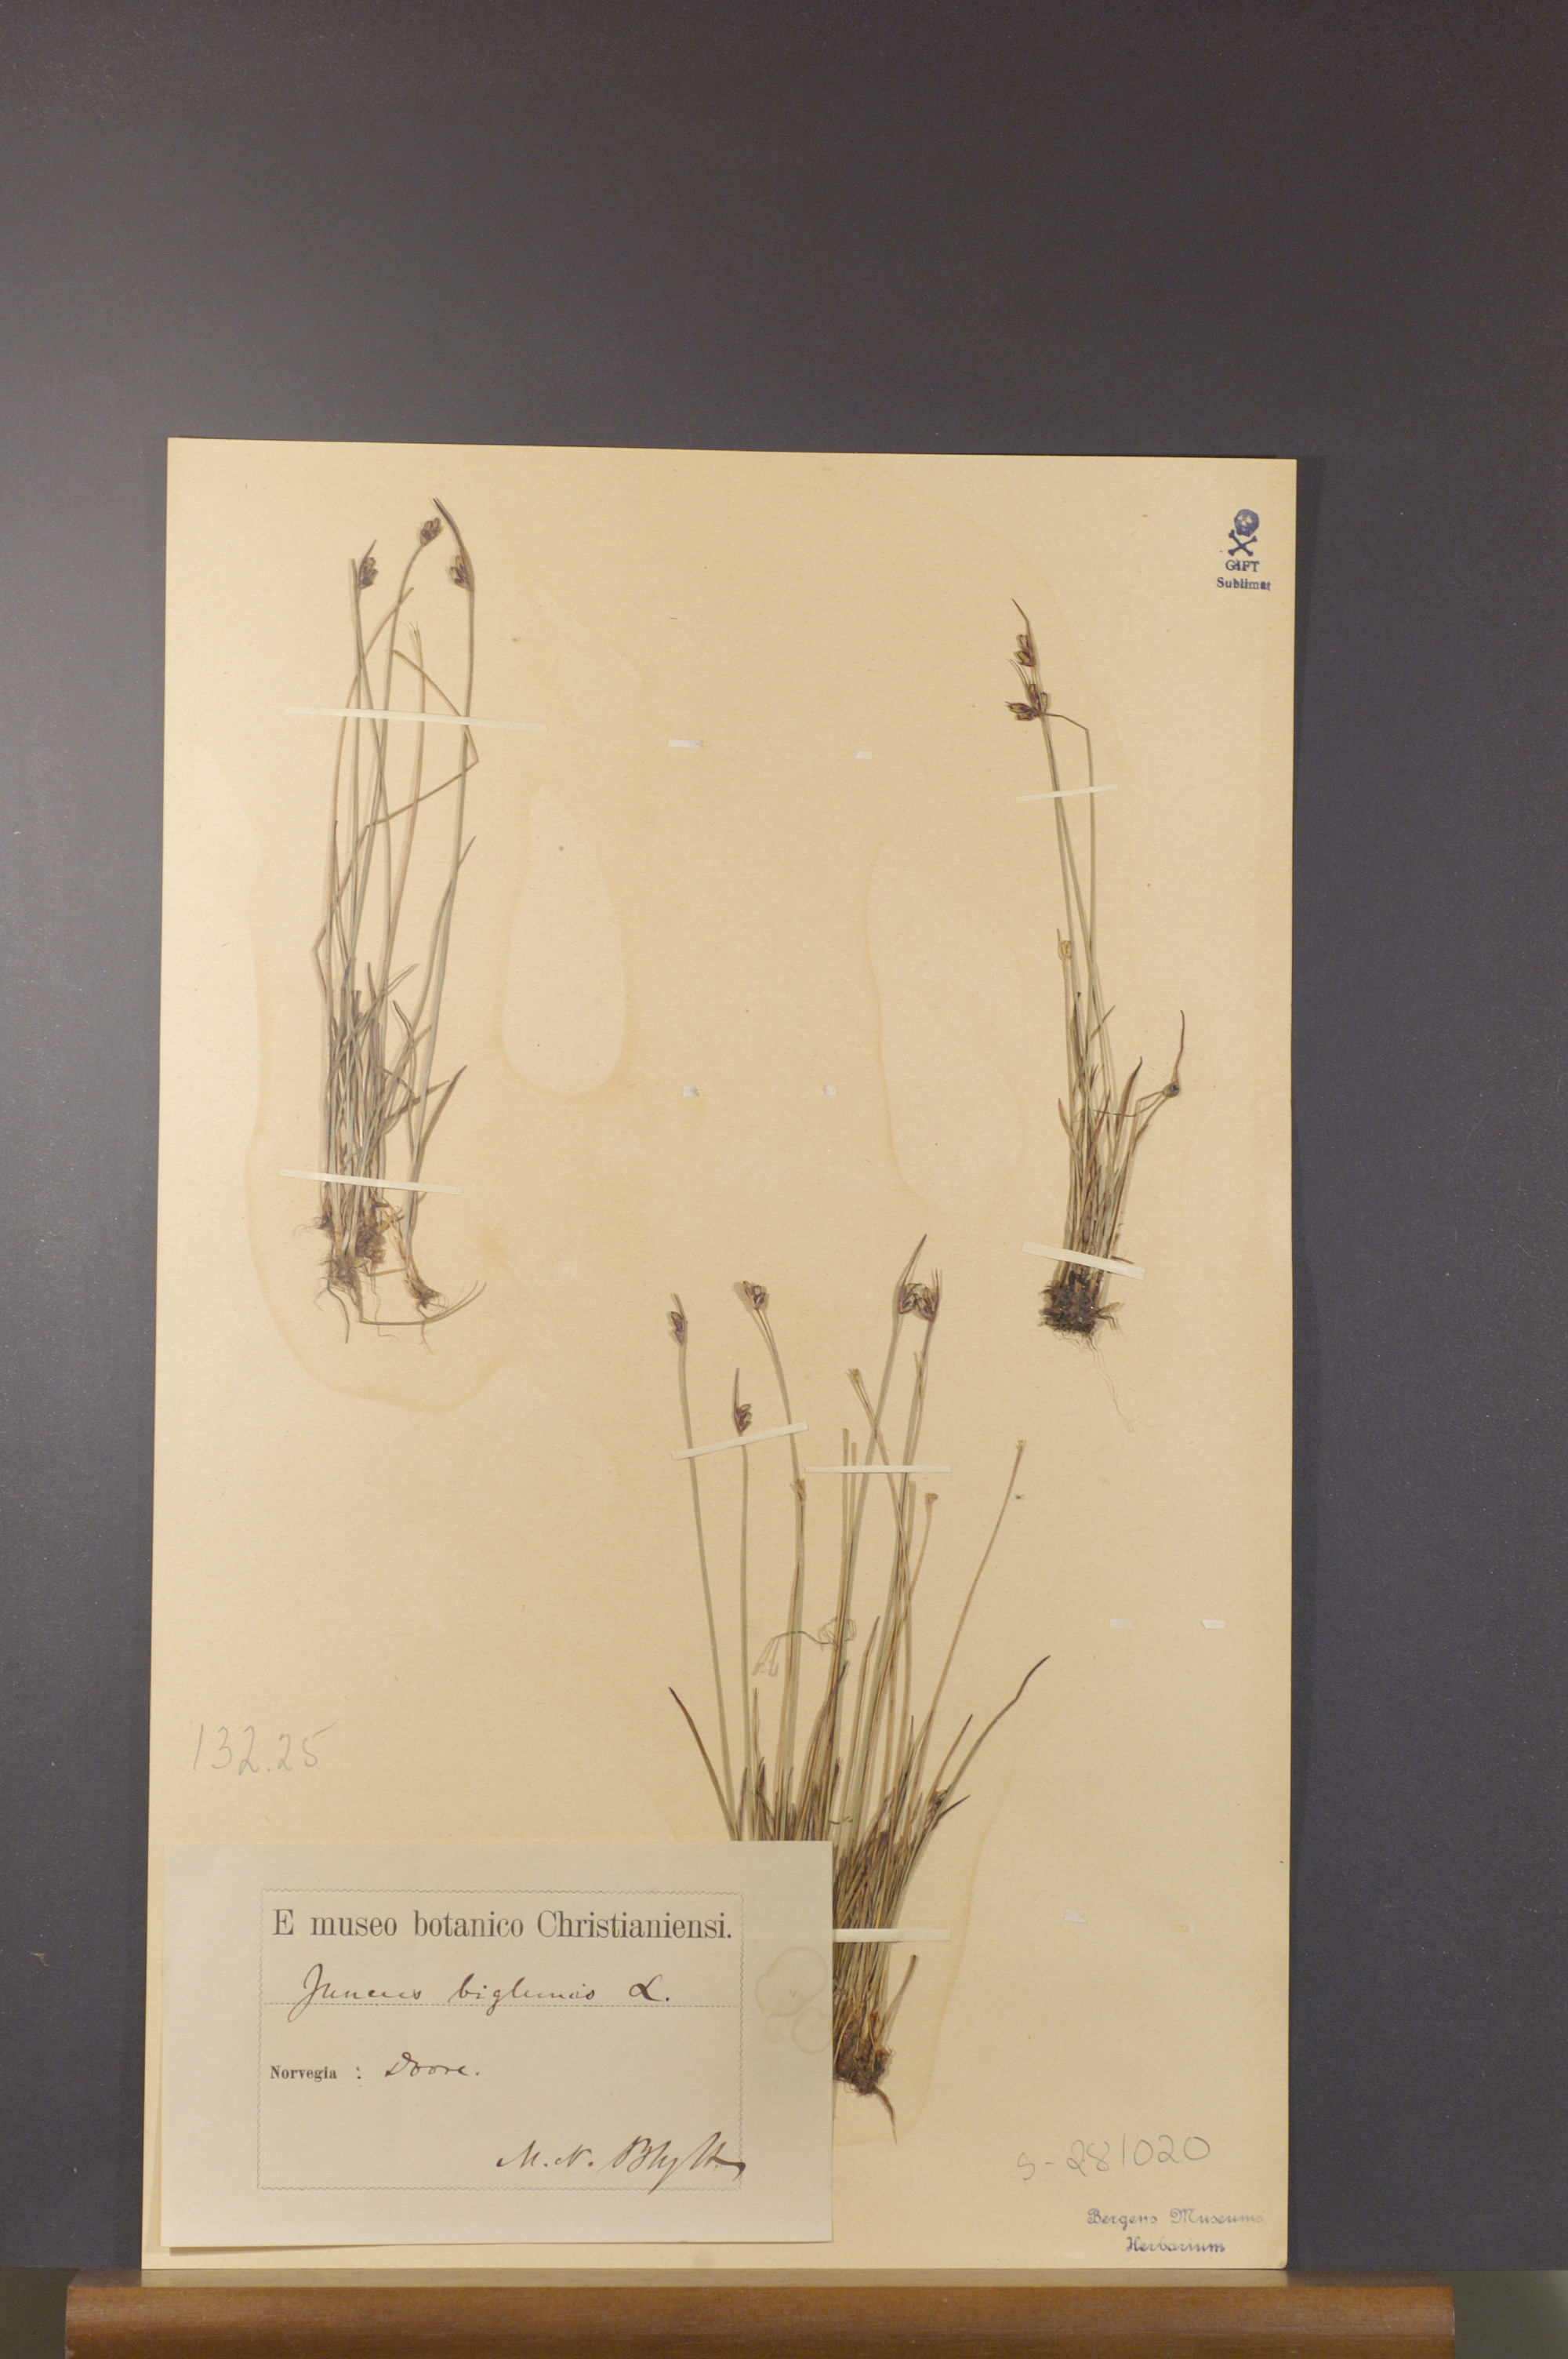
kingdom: Plantae
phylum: Tracheophyta
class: Liliopsida
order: Poales
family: Juncaceae
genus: Juncus
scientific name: Juncus biglumis
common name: Two-flowered rush
